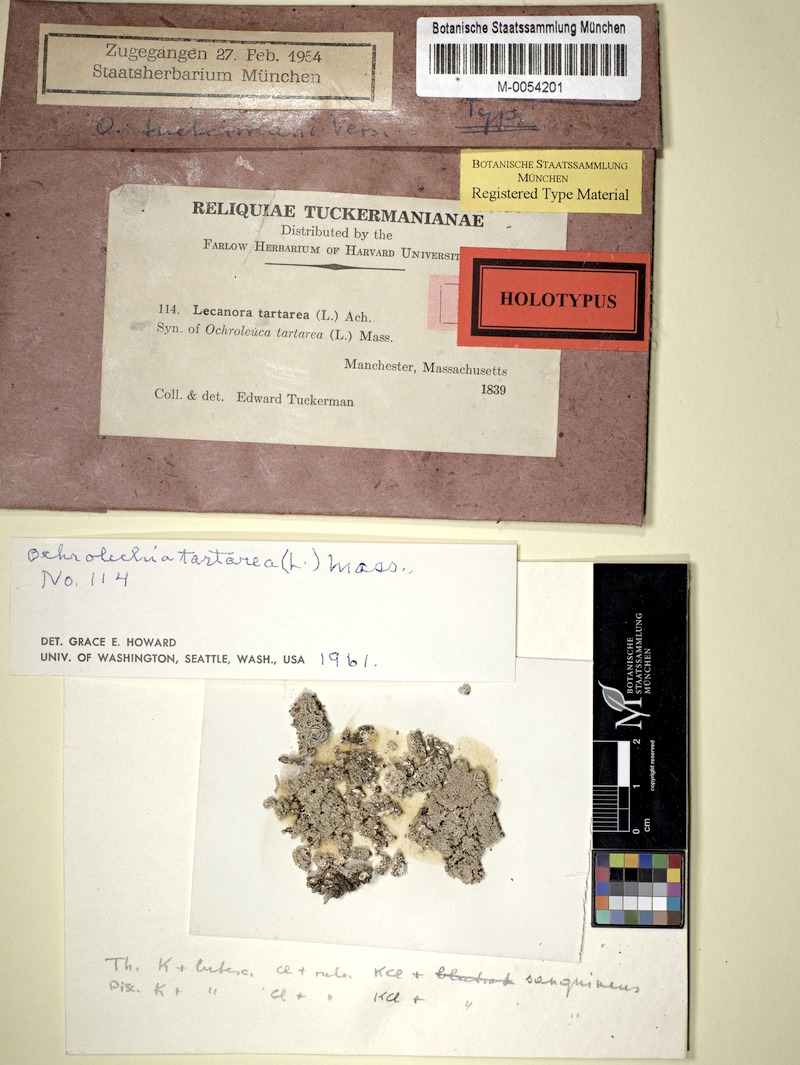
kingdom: Fungi
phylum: Ascomycota
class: Lecanoromycetes
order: Pertusariales
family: Ochrolechiaceae
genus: Ochrolechia
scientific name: Ochrolechia yasudae
